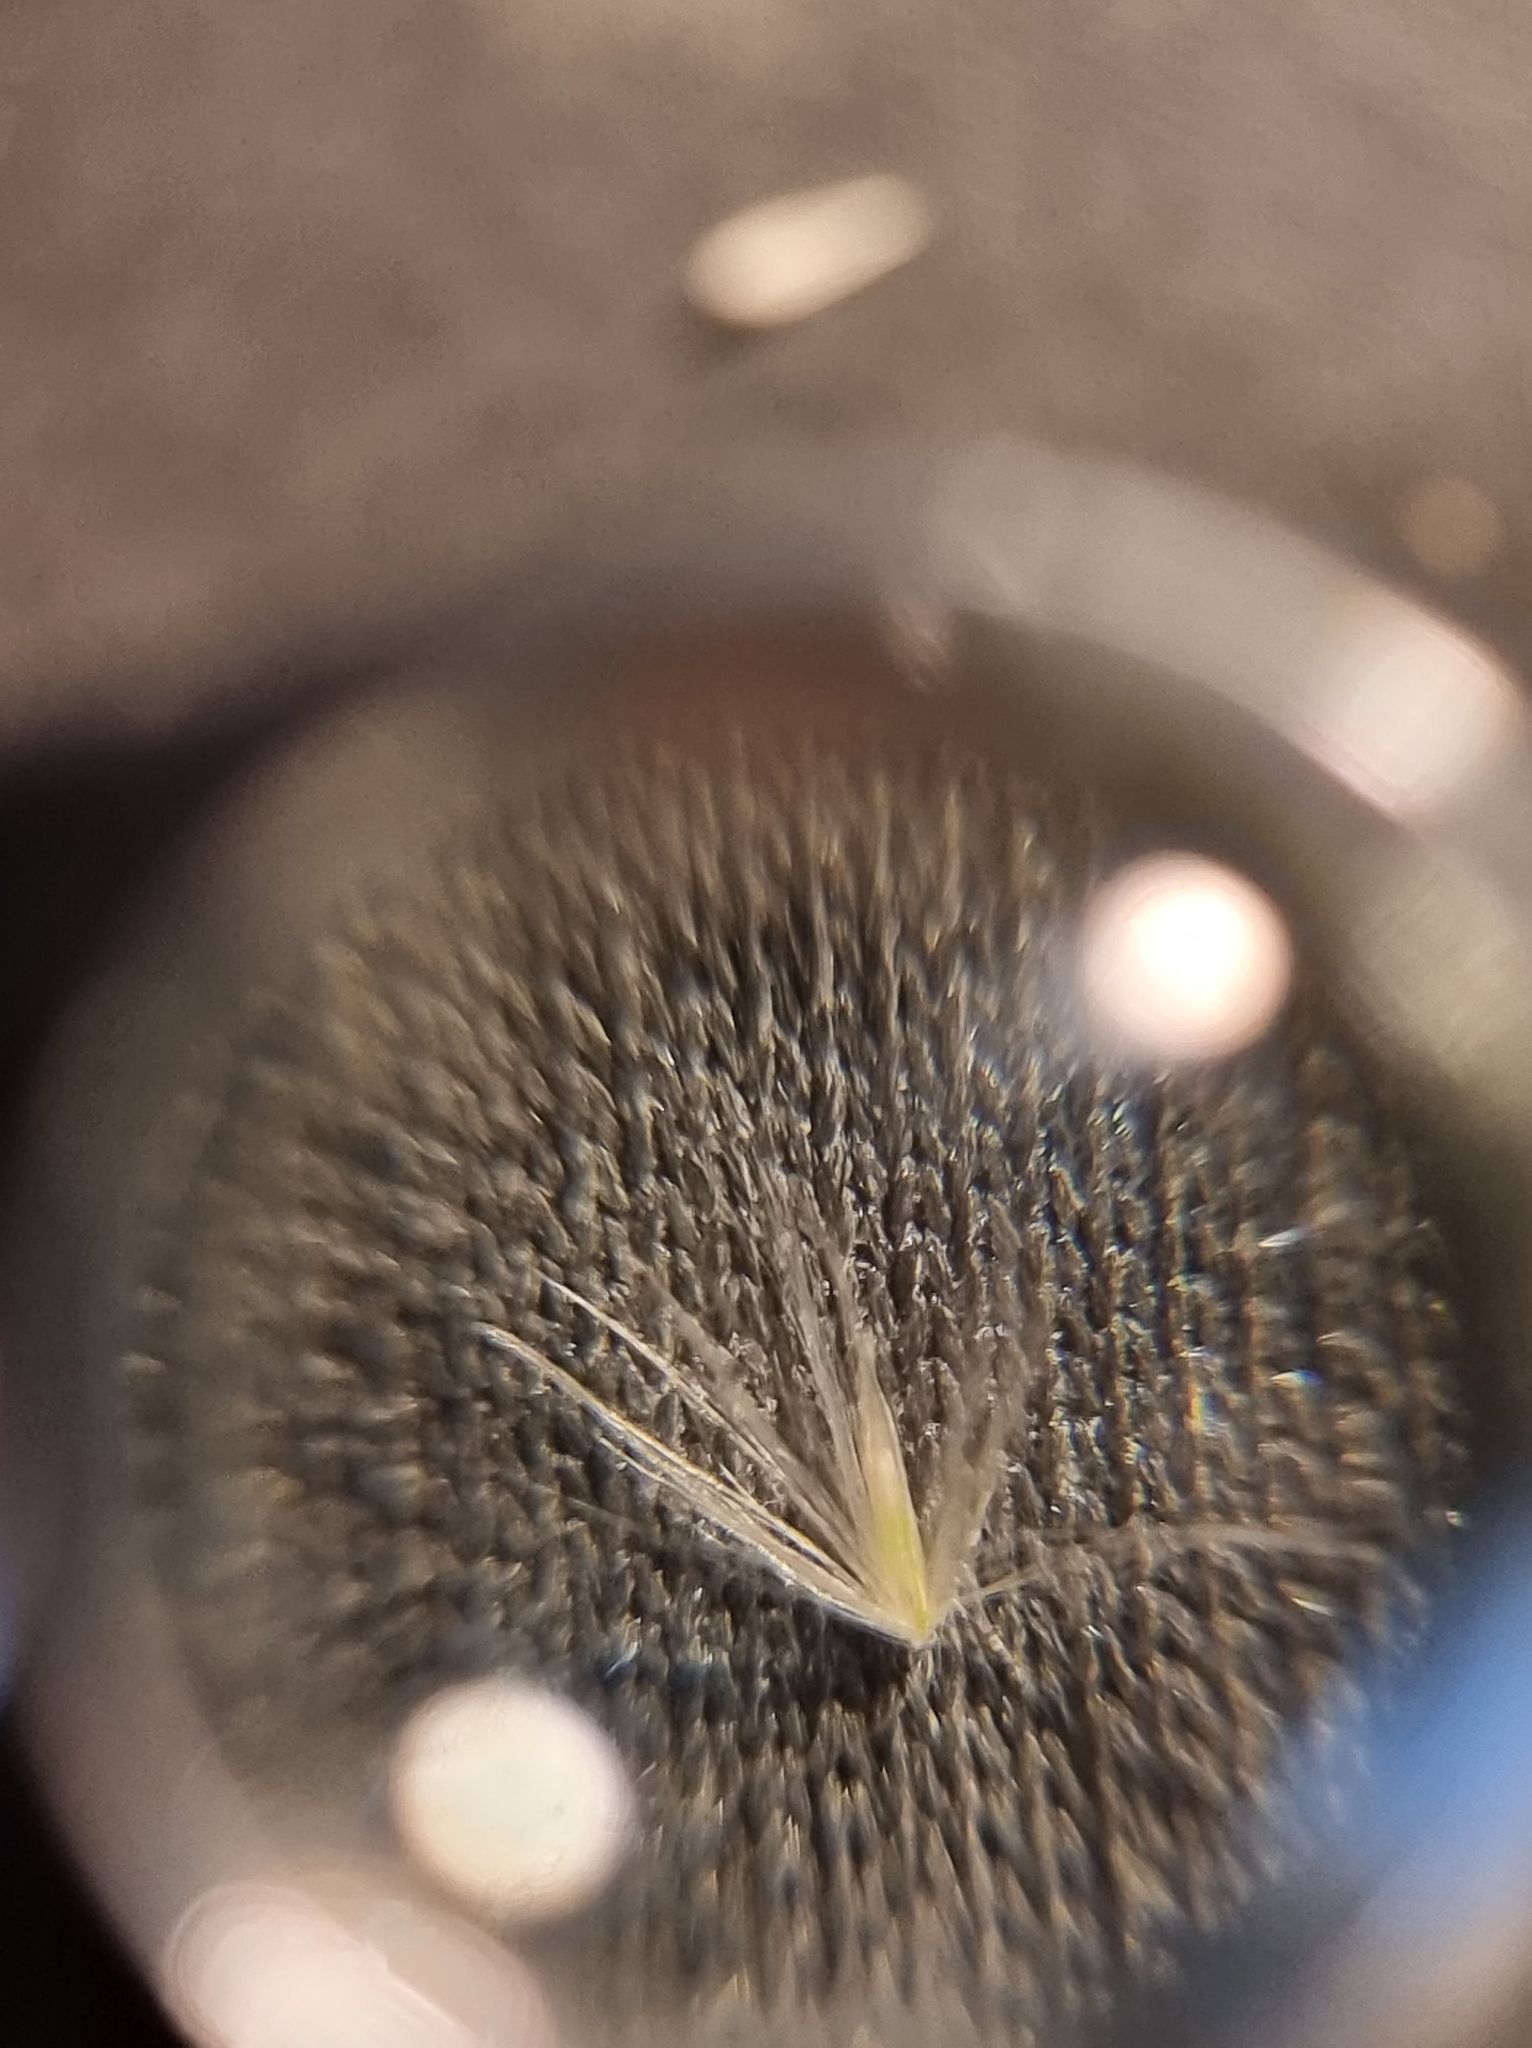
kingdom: Plantae
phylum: Tracheophyta
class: Liliopsida
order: Poales
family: Poaceae
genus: Calamagrostis
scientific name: Calamagrostis epigejos
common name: Bjerg-rørhvene
